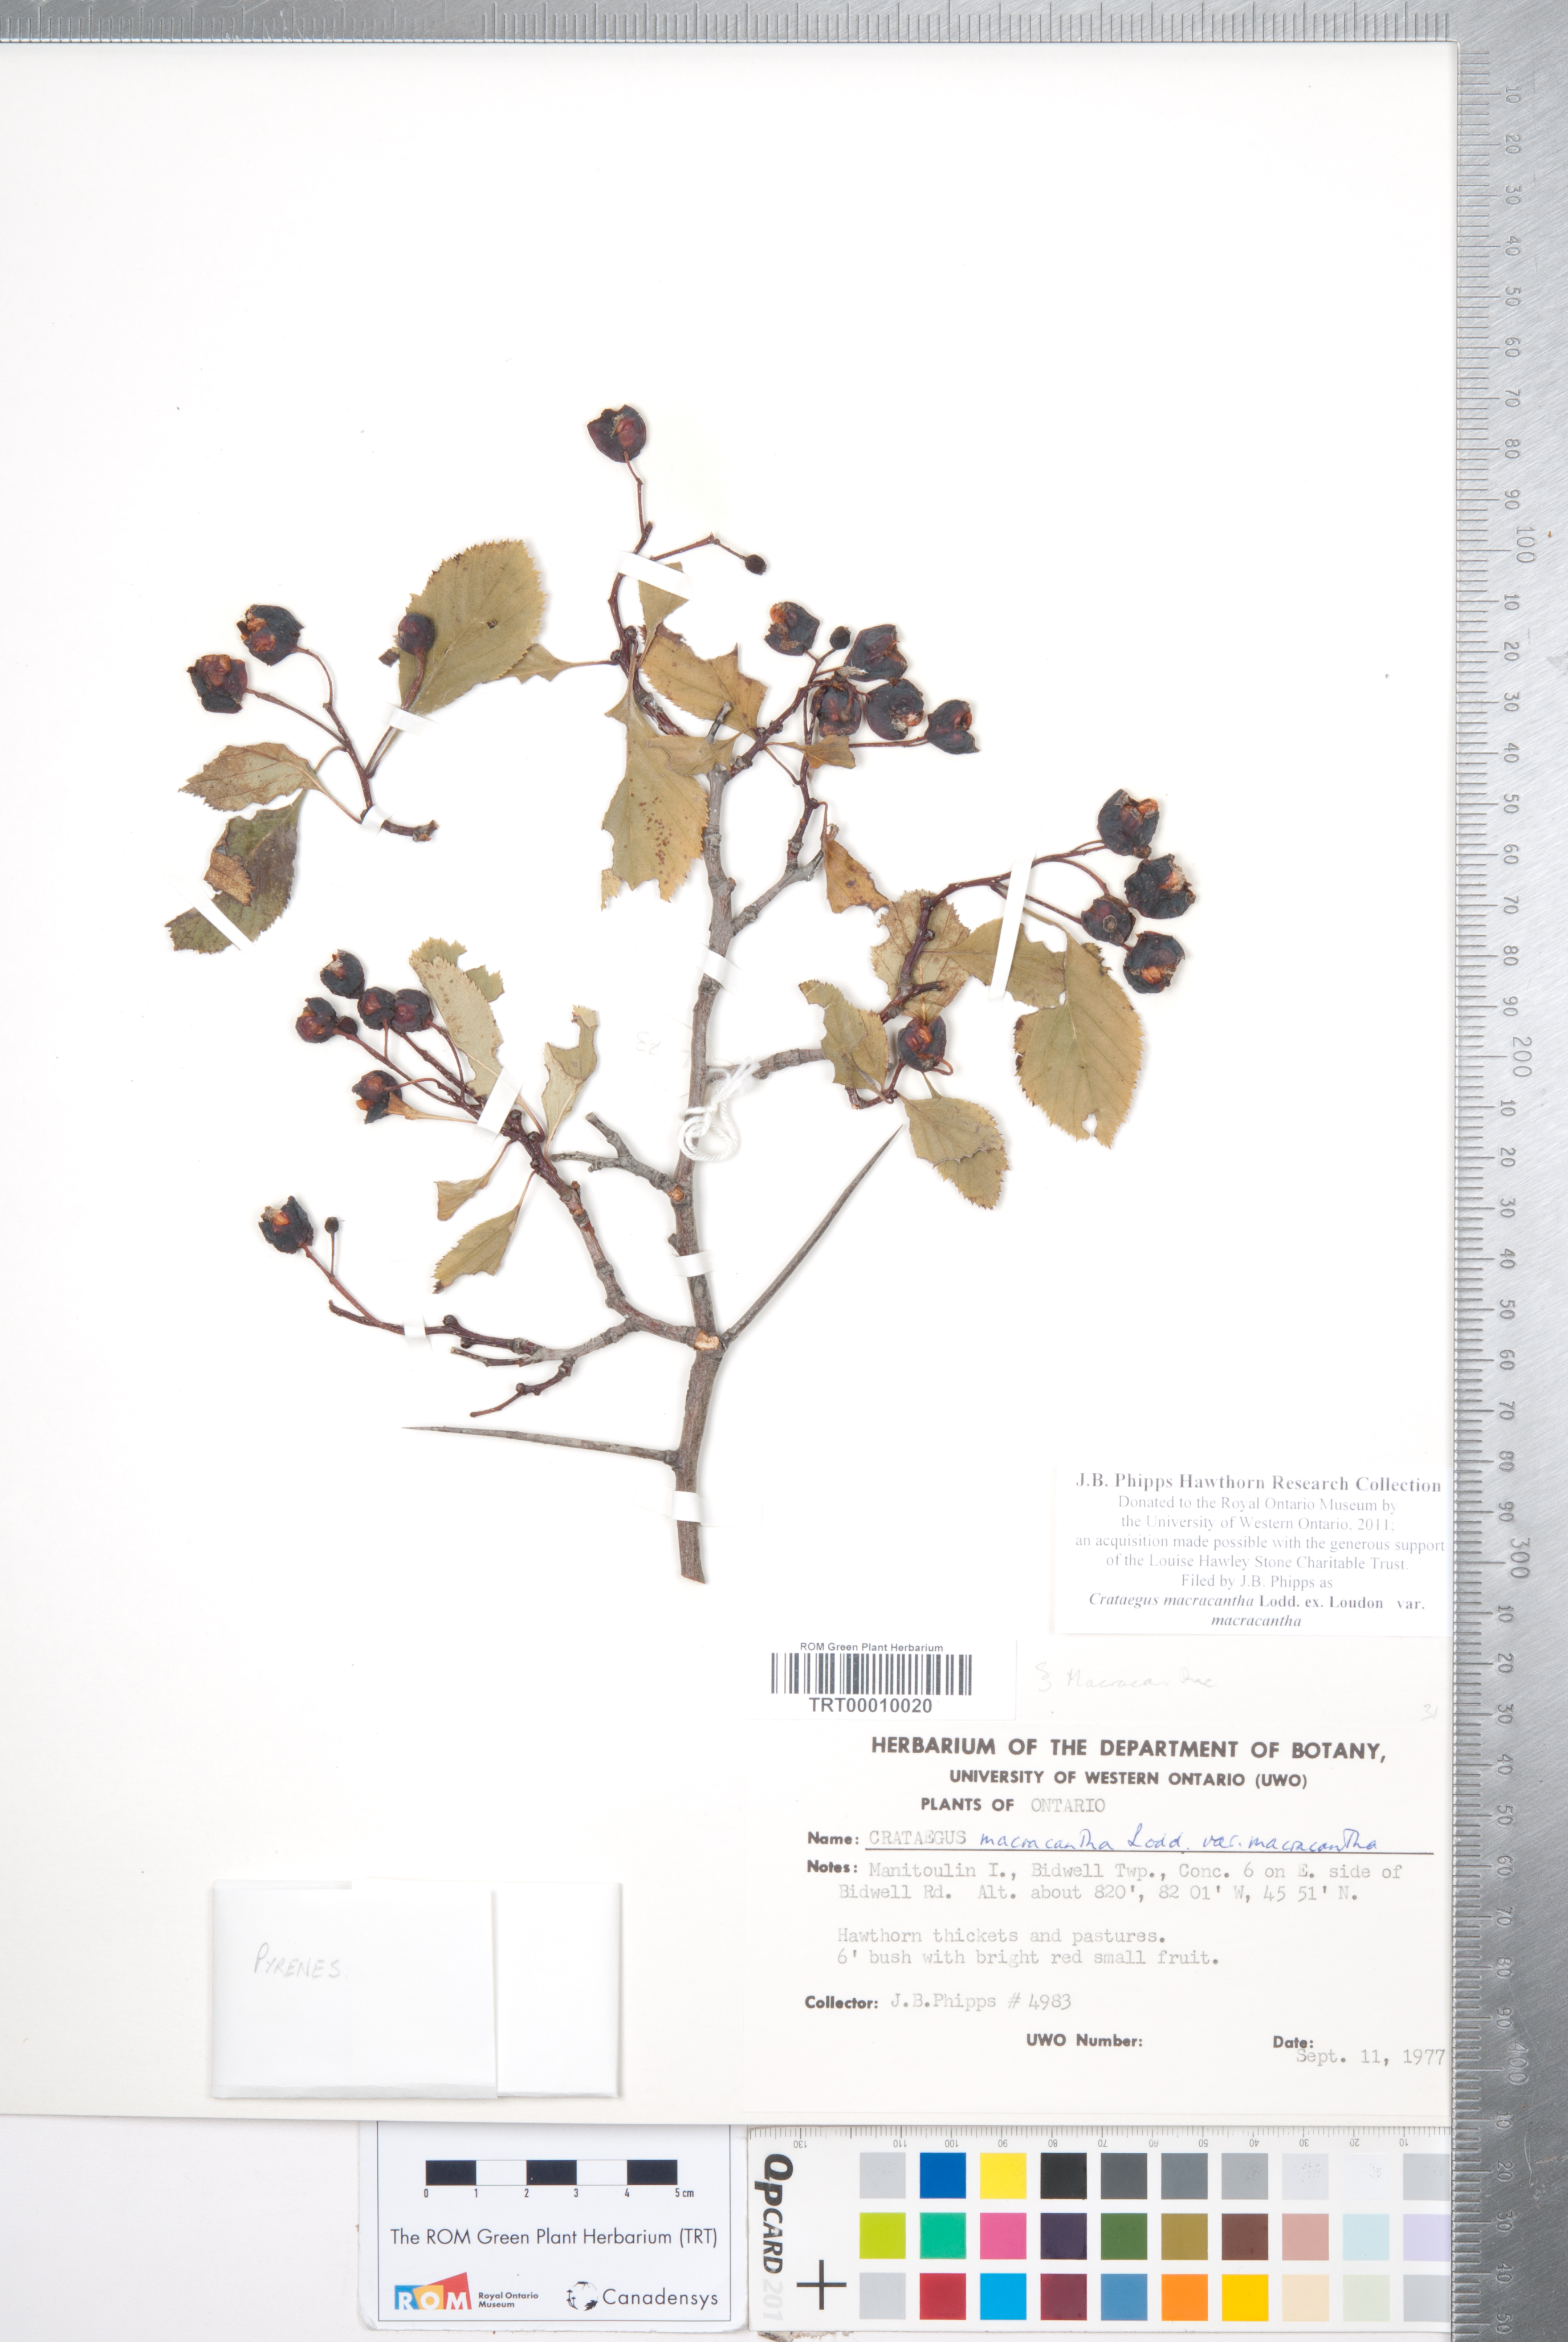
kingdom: Plantae
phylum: Tracheophyta
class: Magnoliopsida
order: Rosales
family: Rosaceae
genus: Crataegus
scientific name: Crataegus macracantha
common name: Large-thorn hawthorn
